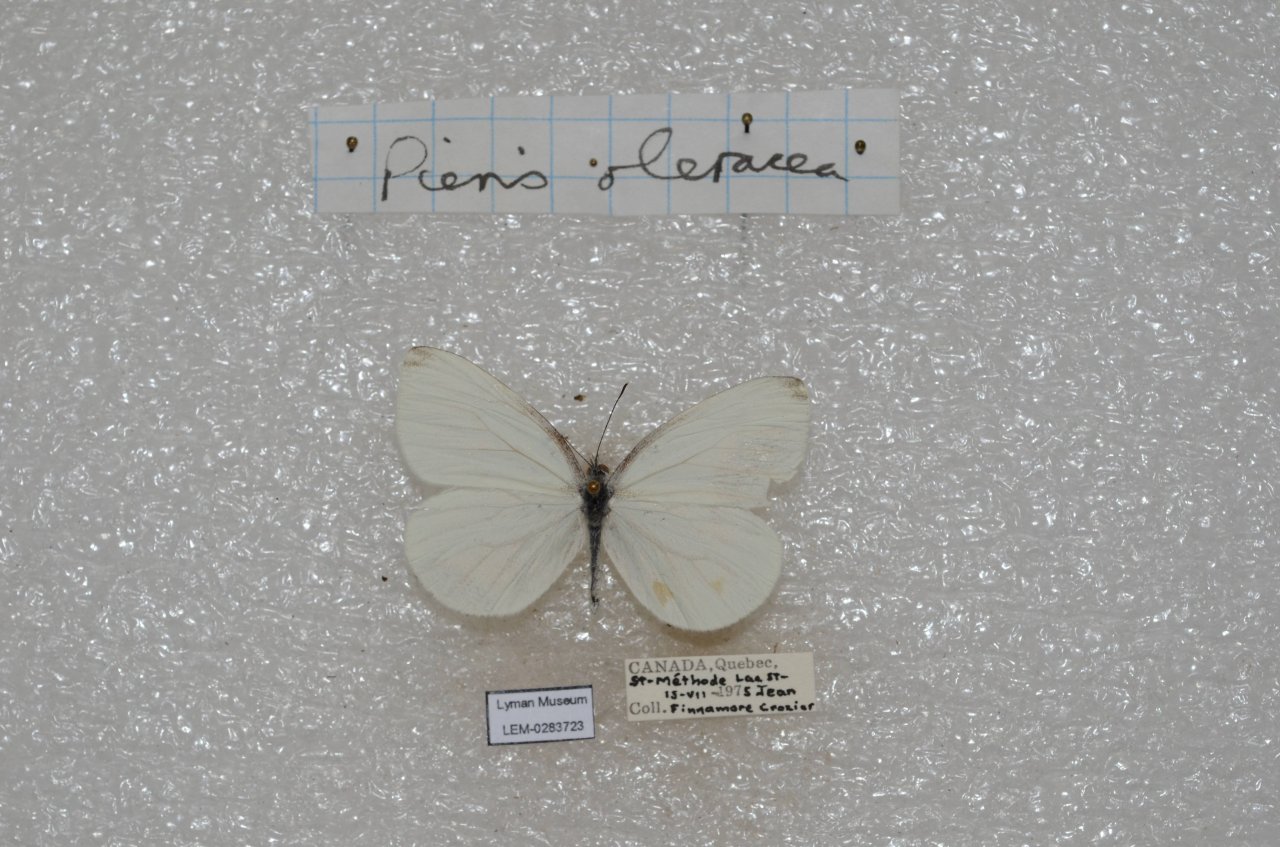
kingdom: Animalia
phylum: Arthropoda
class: Insecta
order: Lepidoptera
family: Pieridae
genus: Pieris
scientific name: Pieris oleracea
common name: Mustard White
